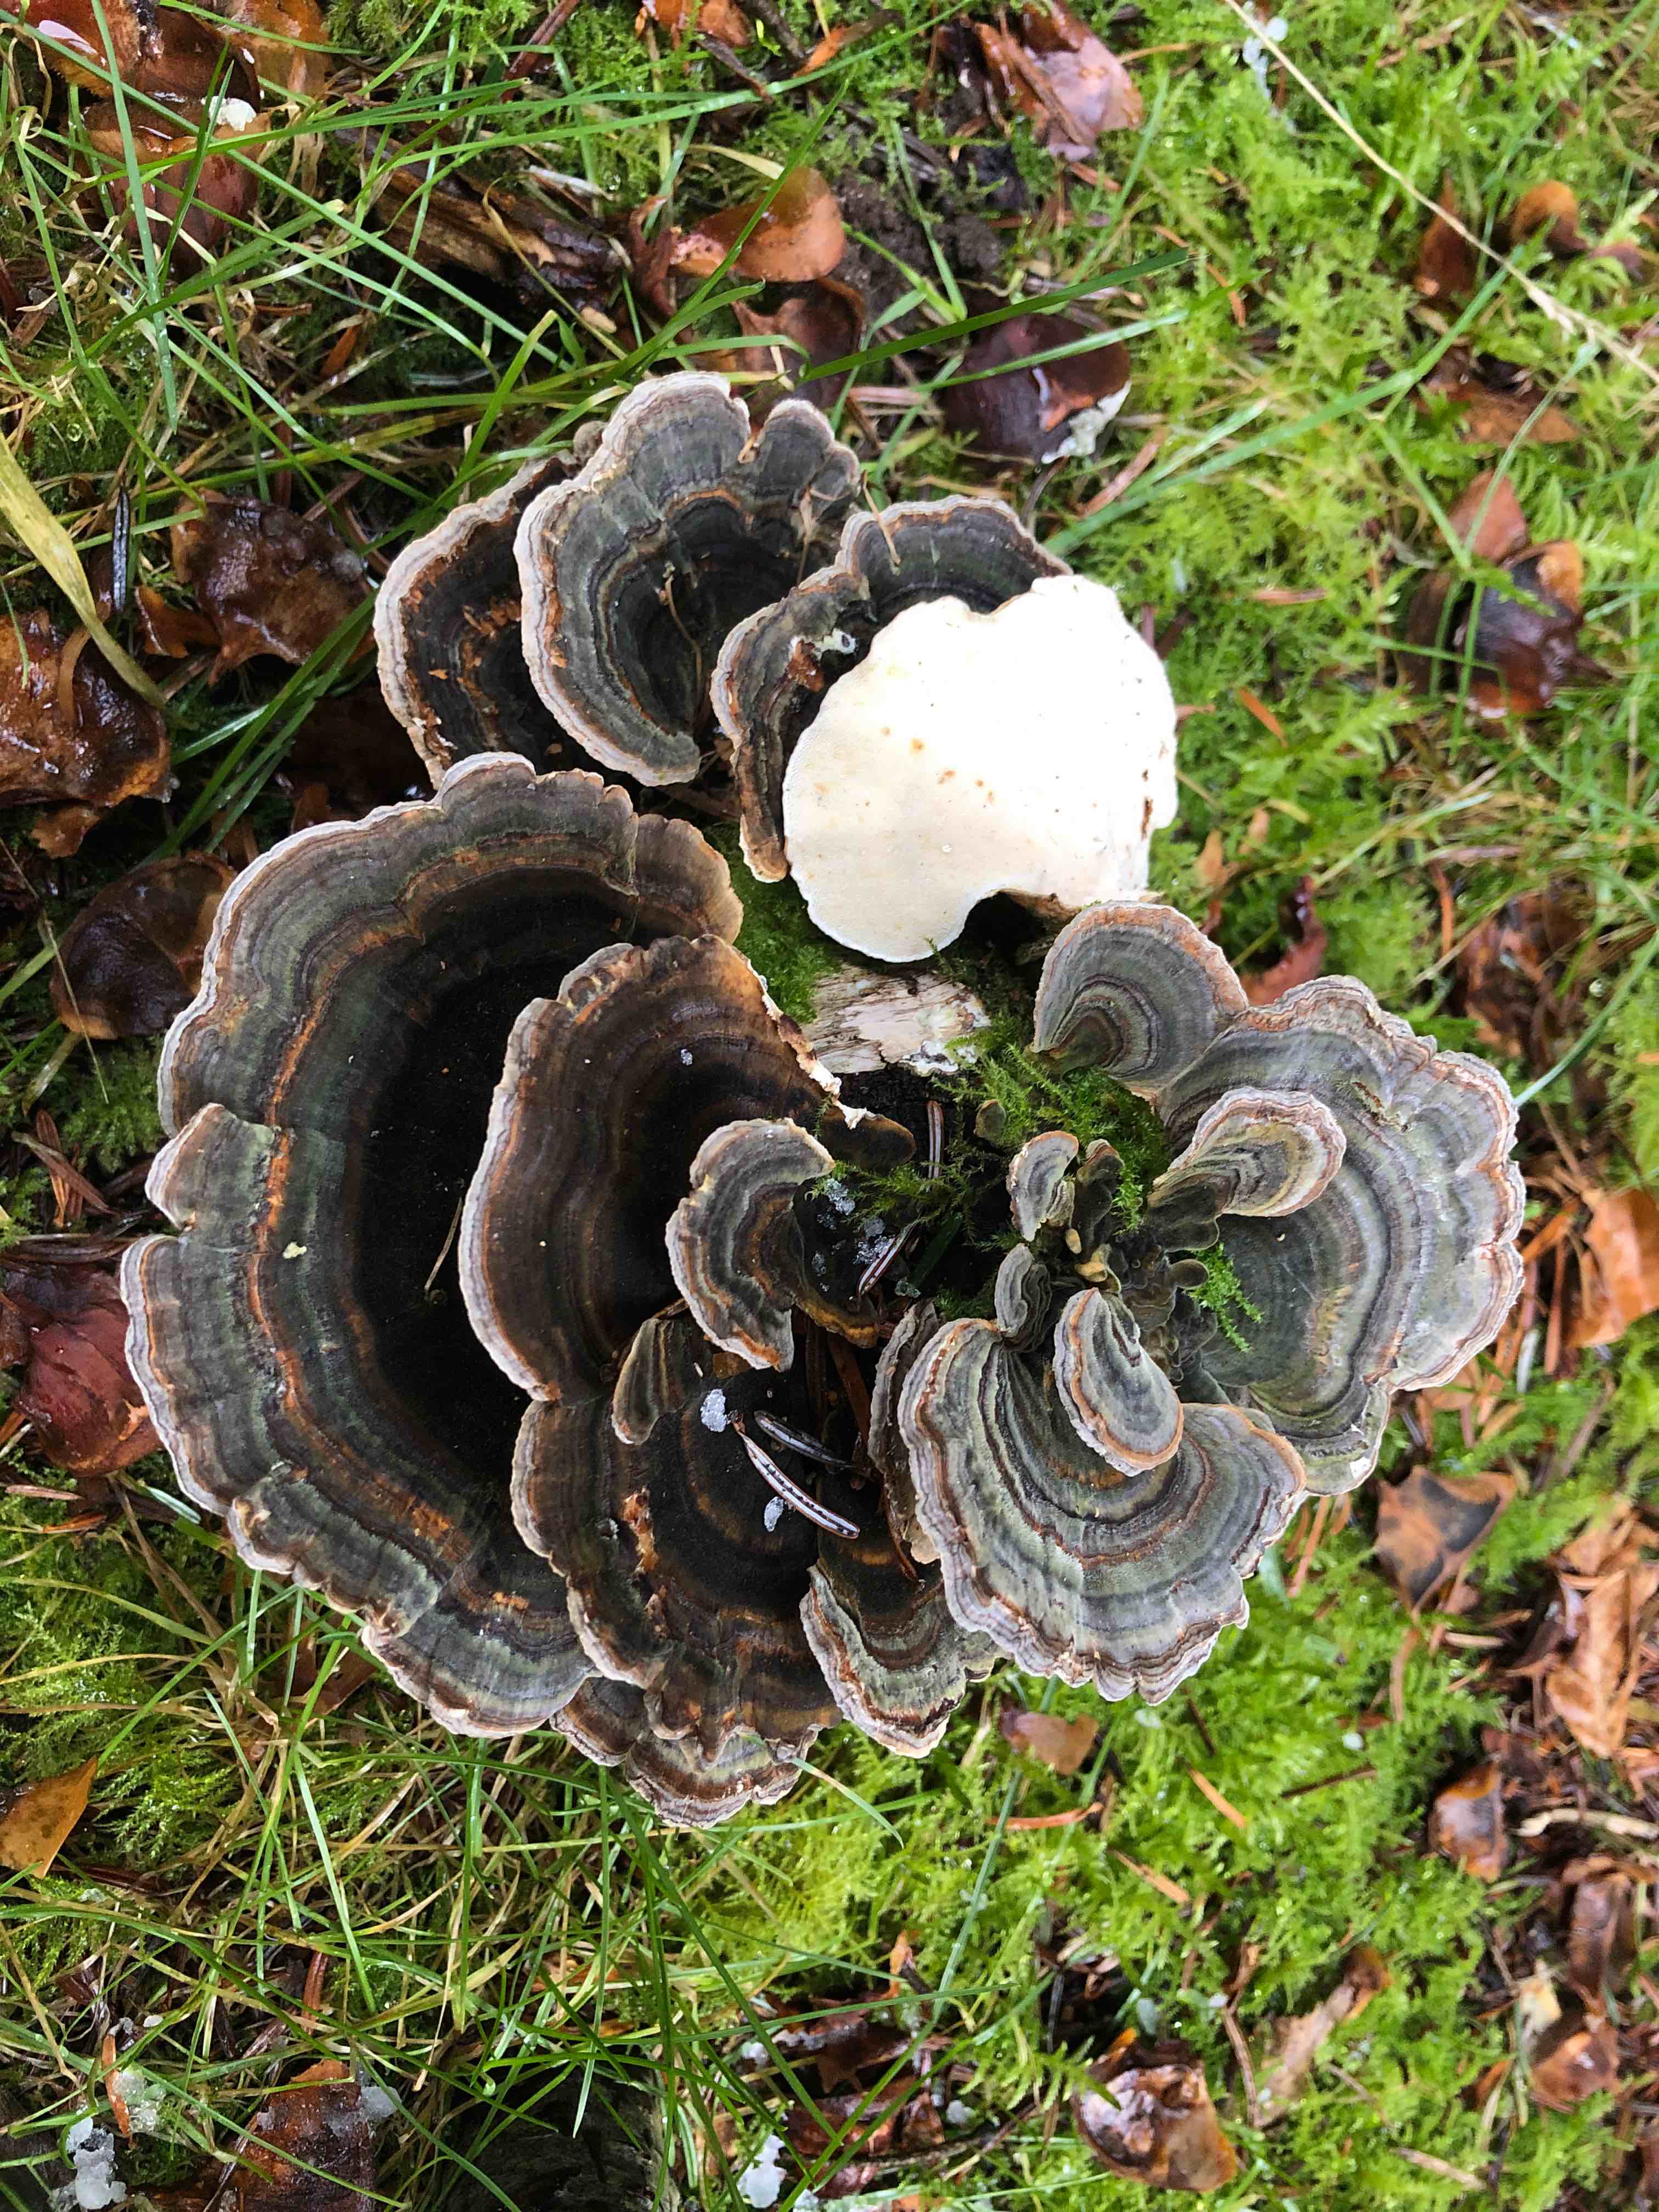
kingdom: Fungi
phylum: Basidiomycota
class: Agaricomycetes
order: Polyporales
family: Polyporaceae
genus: Trametes
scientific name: Trametes versicolor
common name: broget læderporesvamp
